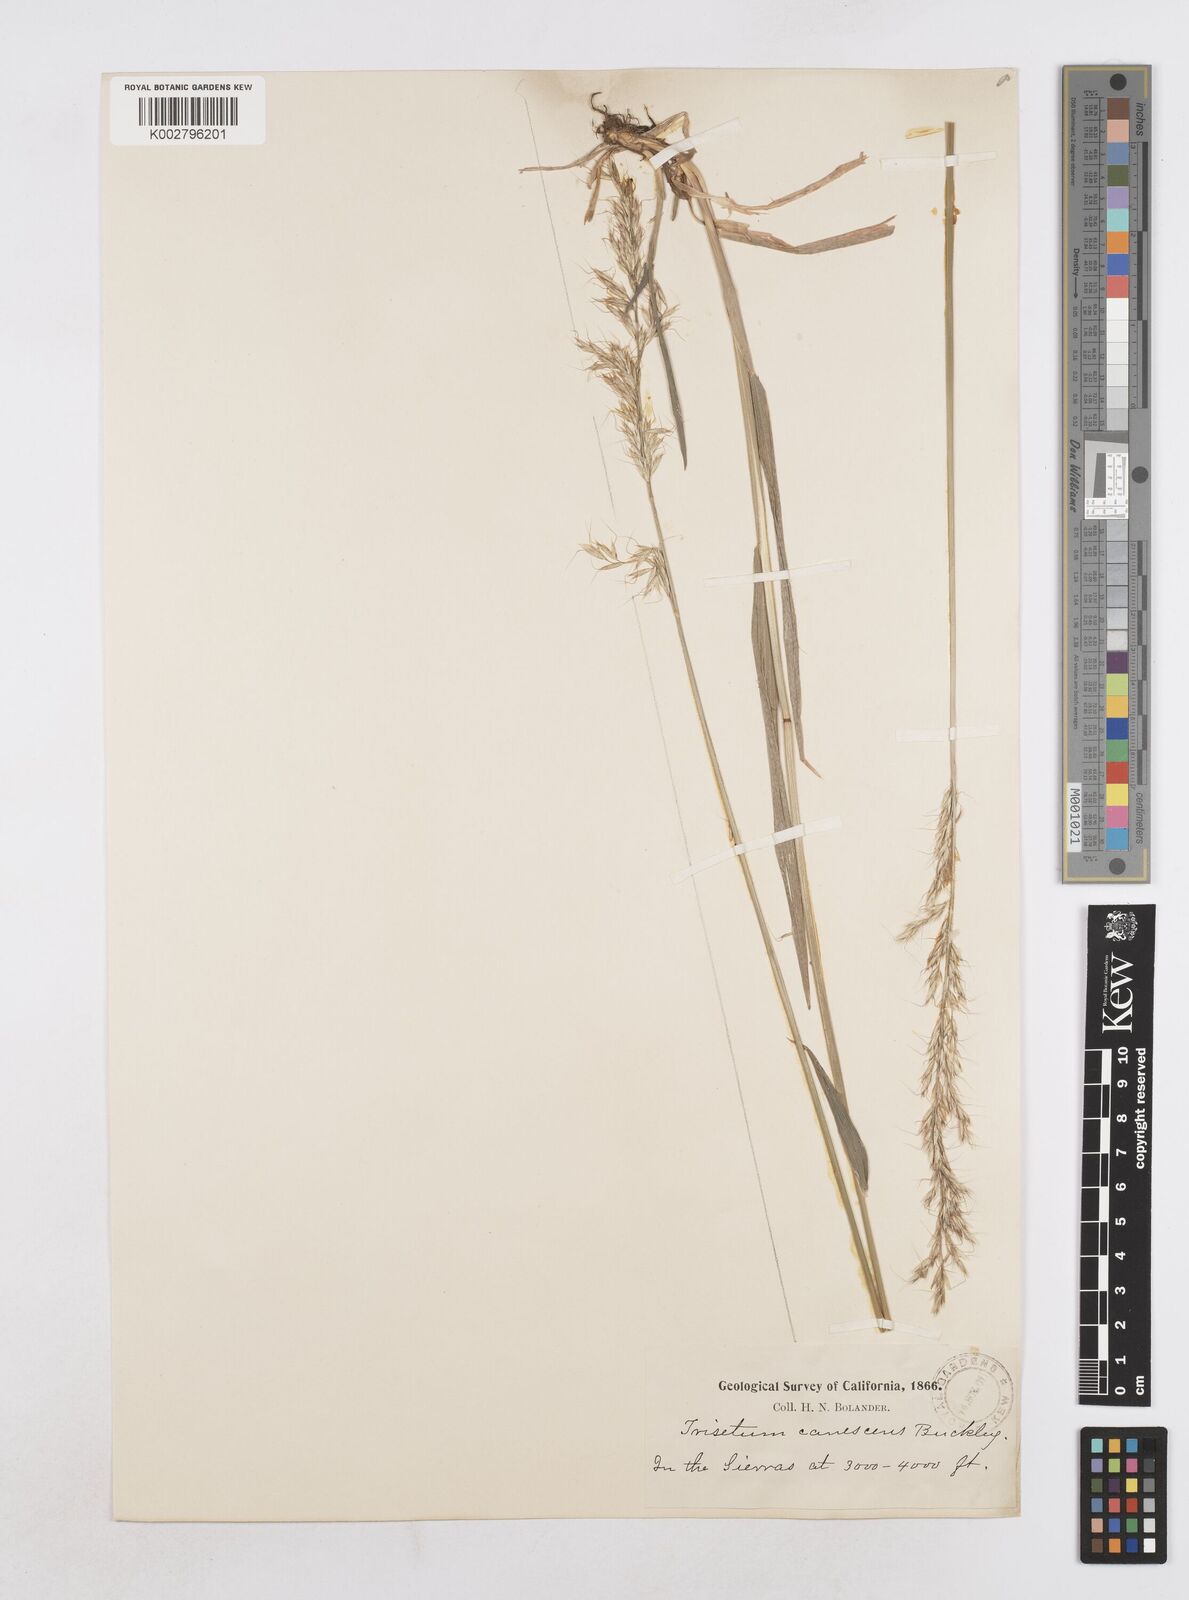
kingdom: Plantae
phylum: Tracheophyta
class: Liliopsida
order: Poales
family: Poaceae
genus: Graphephorum
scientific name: Graphephorum canescens
